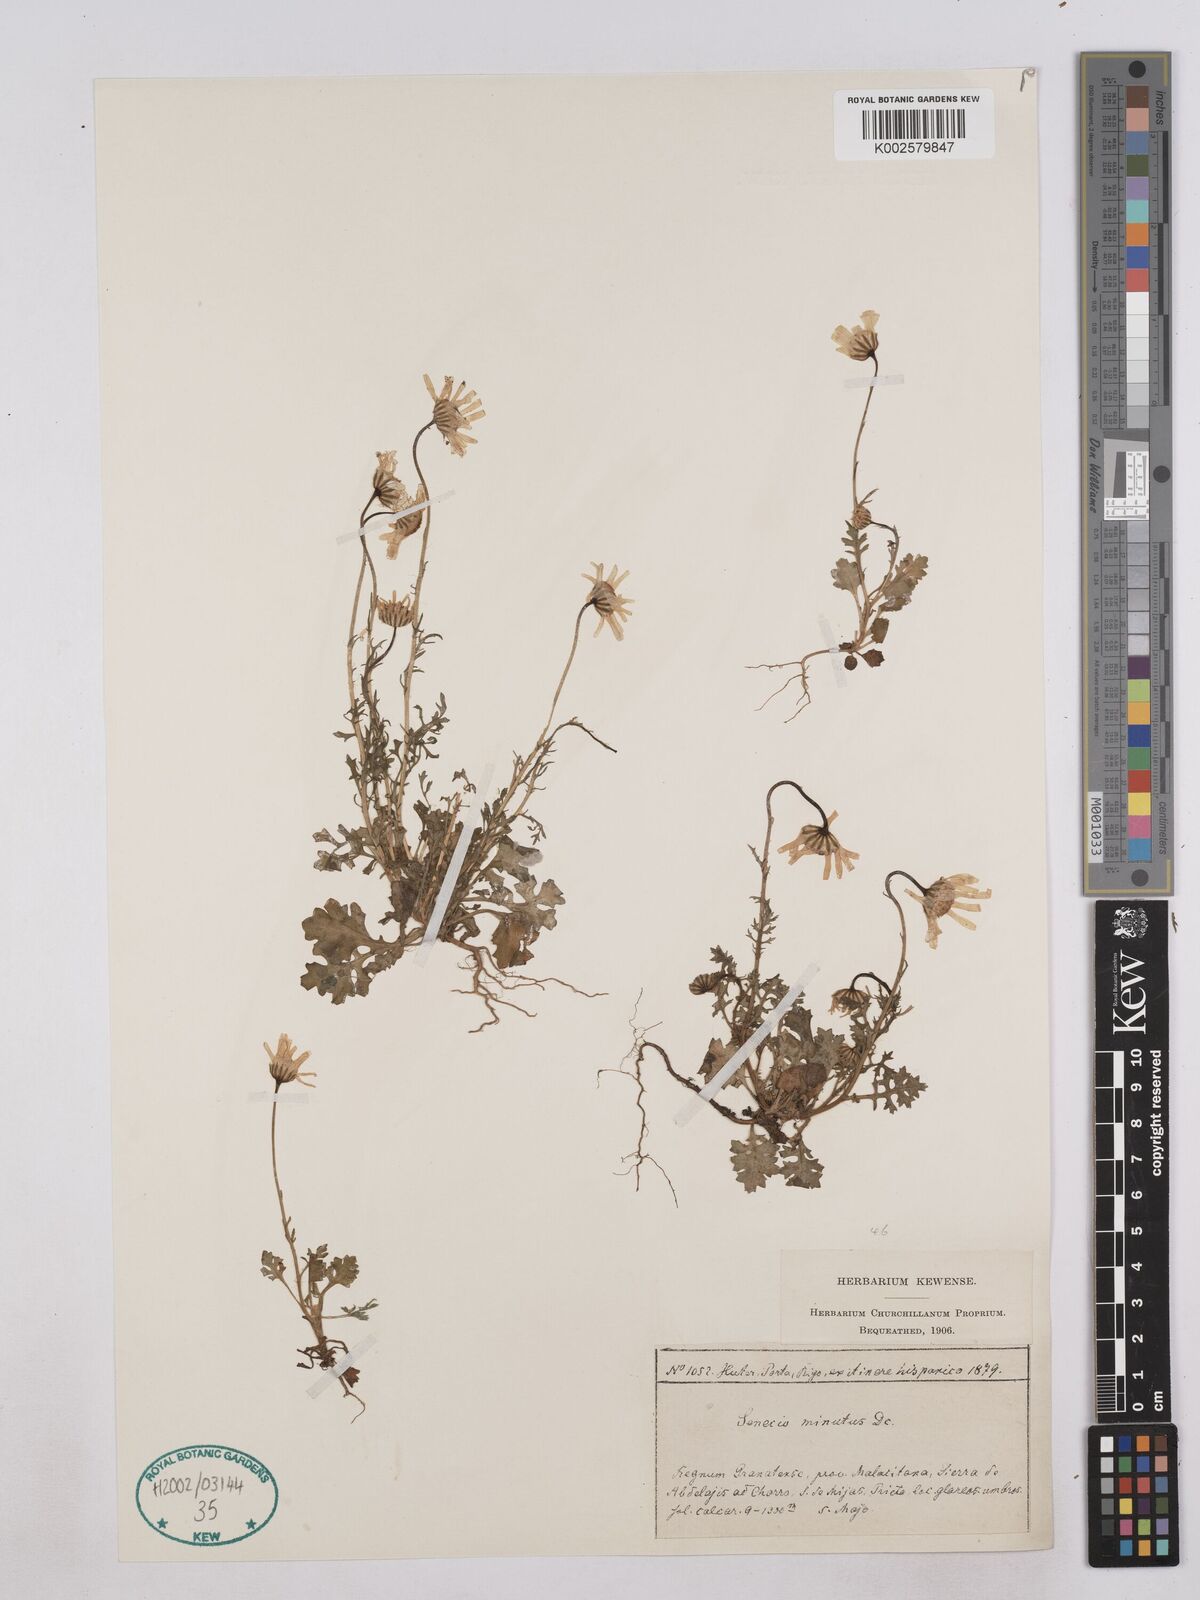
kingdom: Plantae
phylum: Tracheophyta
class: Magnoliopsida
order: Asterales
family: Asteraceae
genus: Jacobaea
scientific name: Jacobaea minuta
